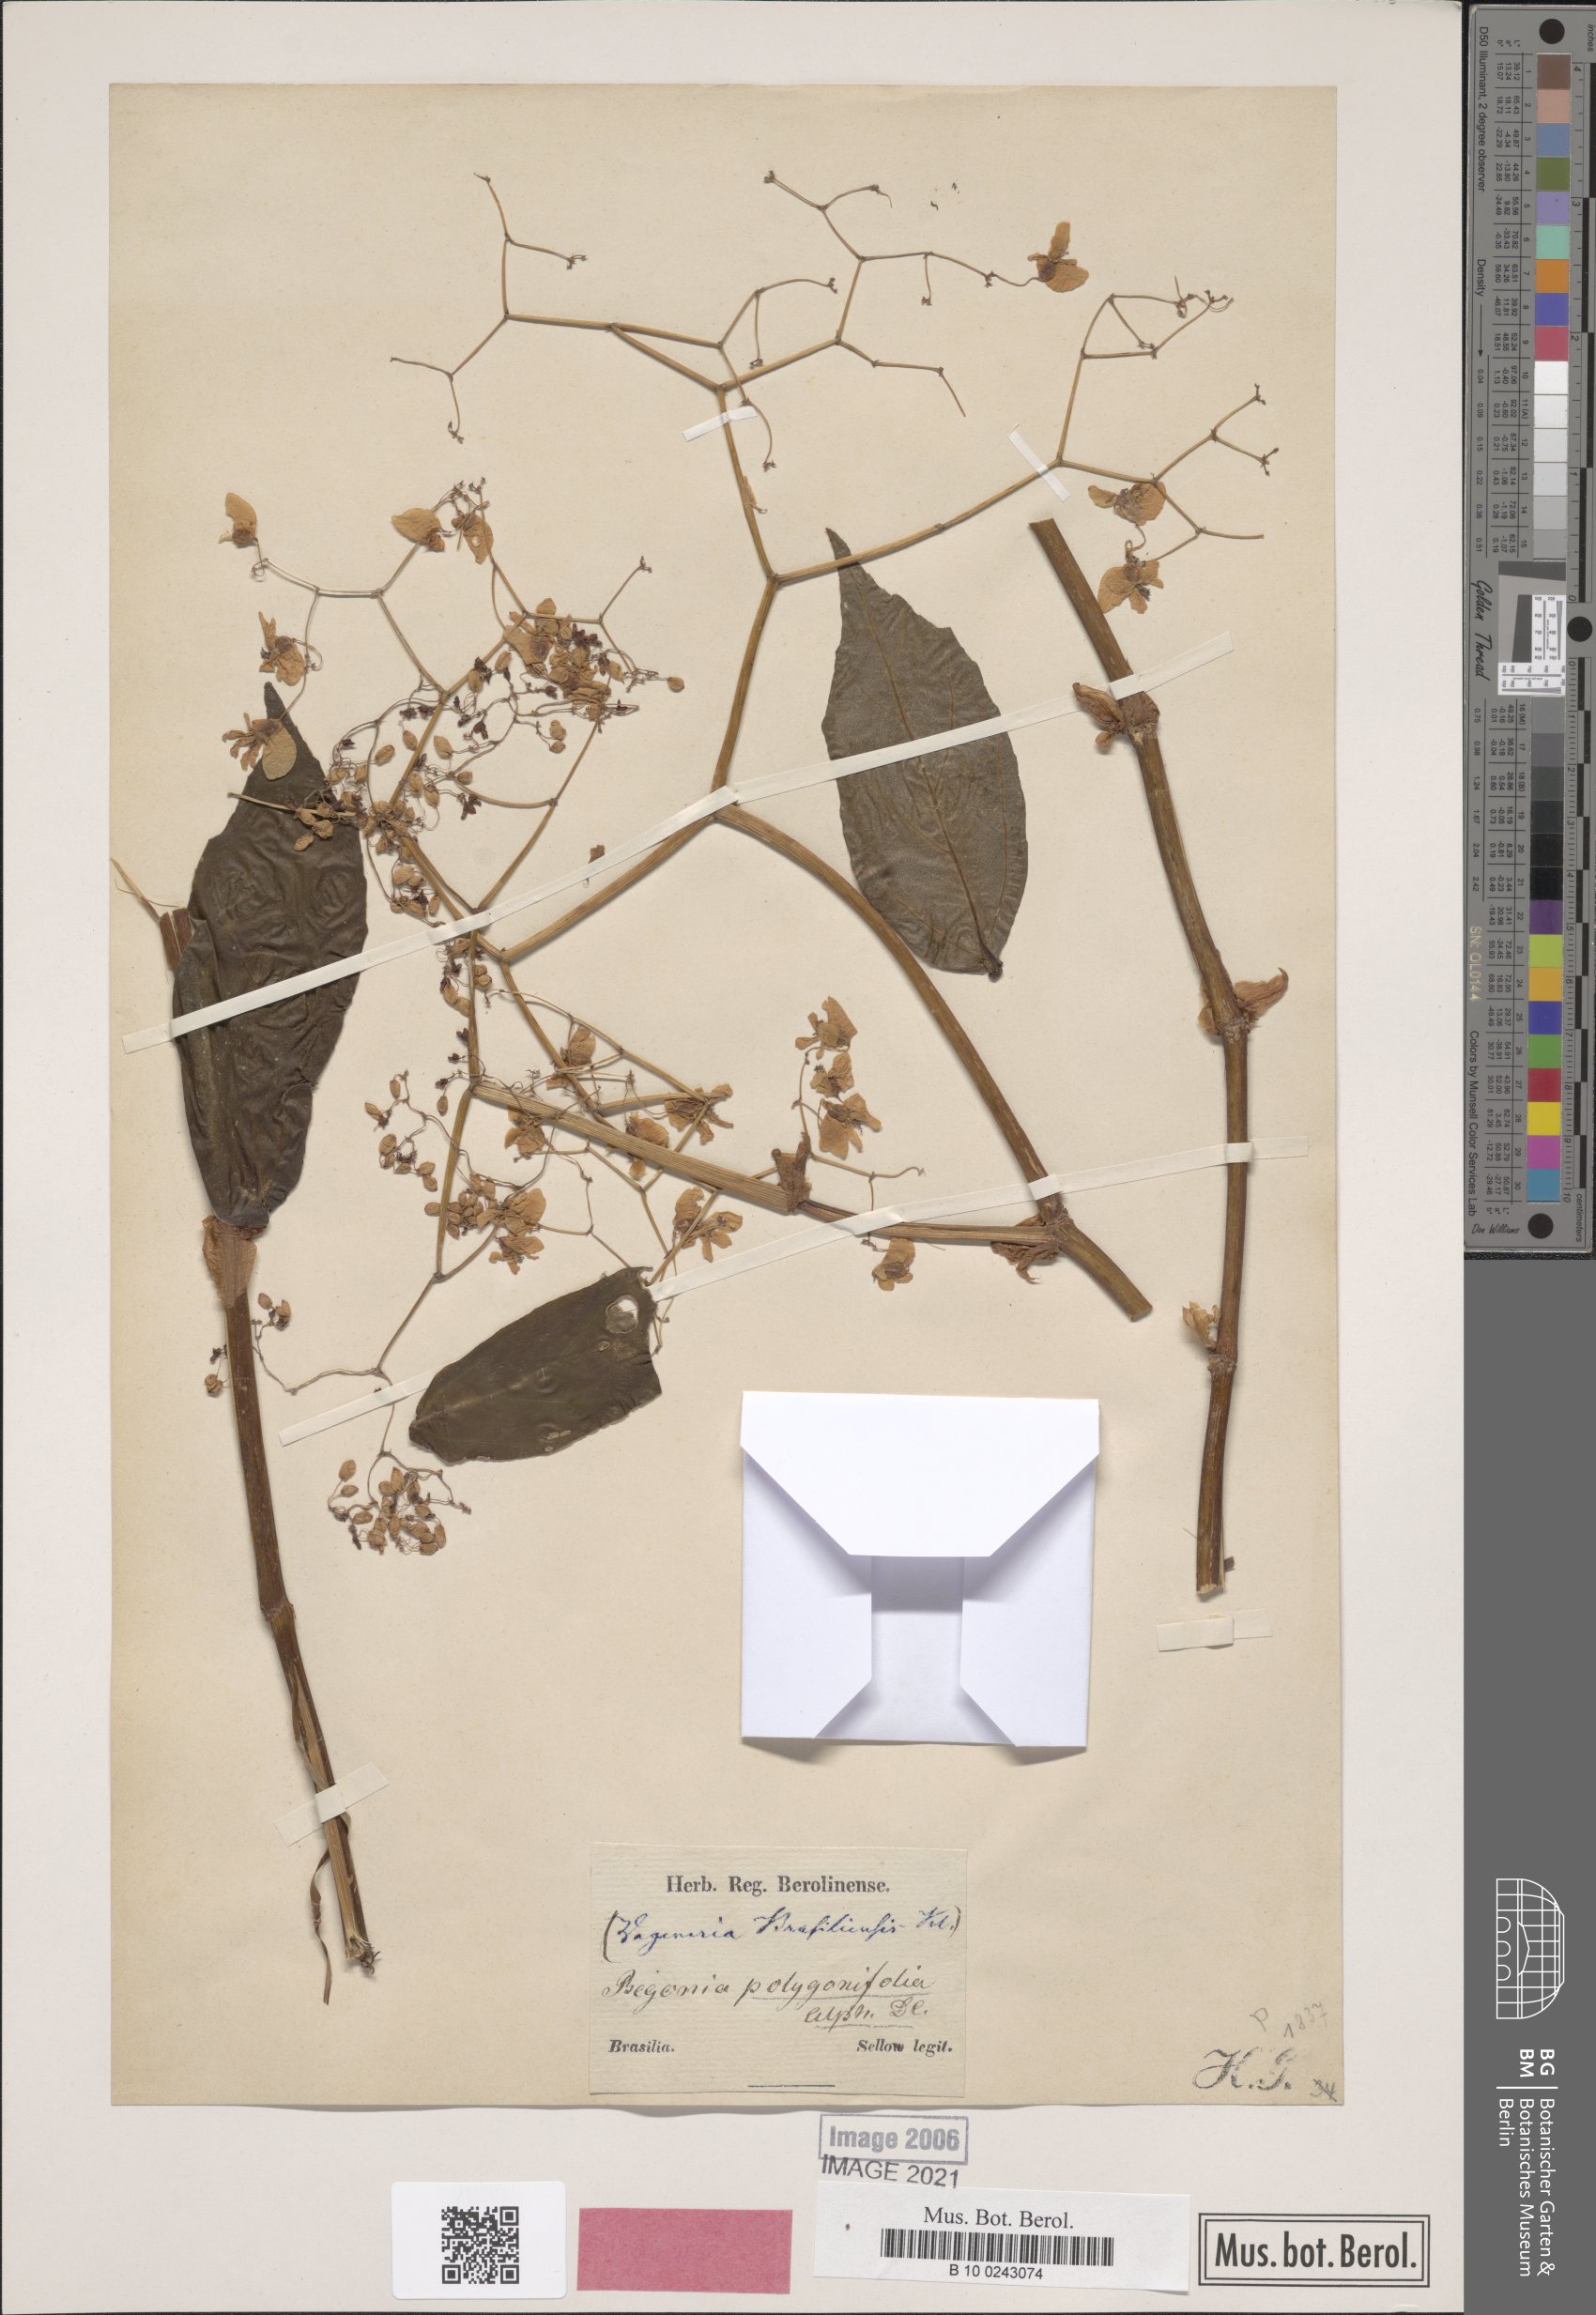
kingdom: Plantae
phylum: Tracheophyta
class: Magnoliopsida
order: Cucurbitales
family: Begoniaceae
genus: Begonia
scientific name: Begonia polygonifolia
